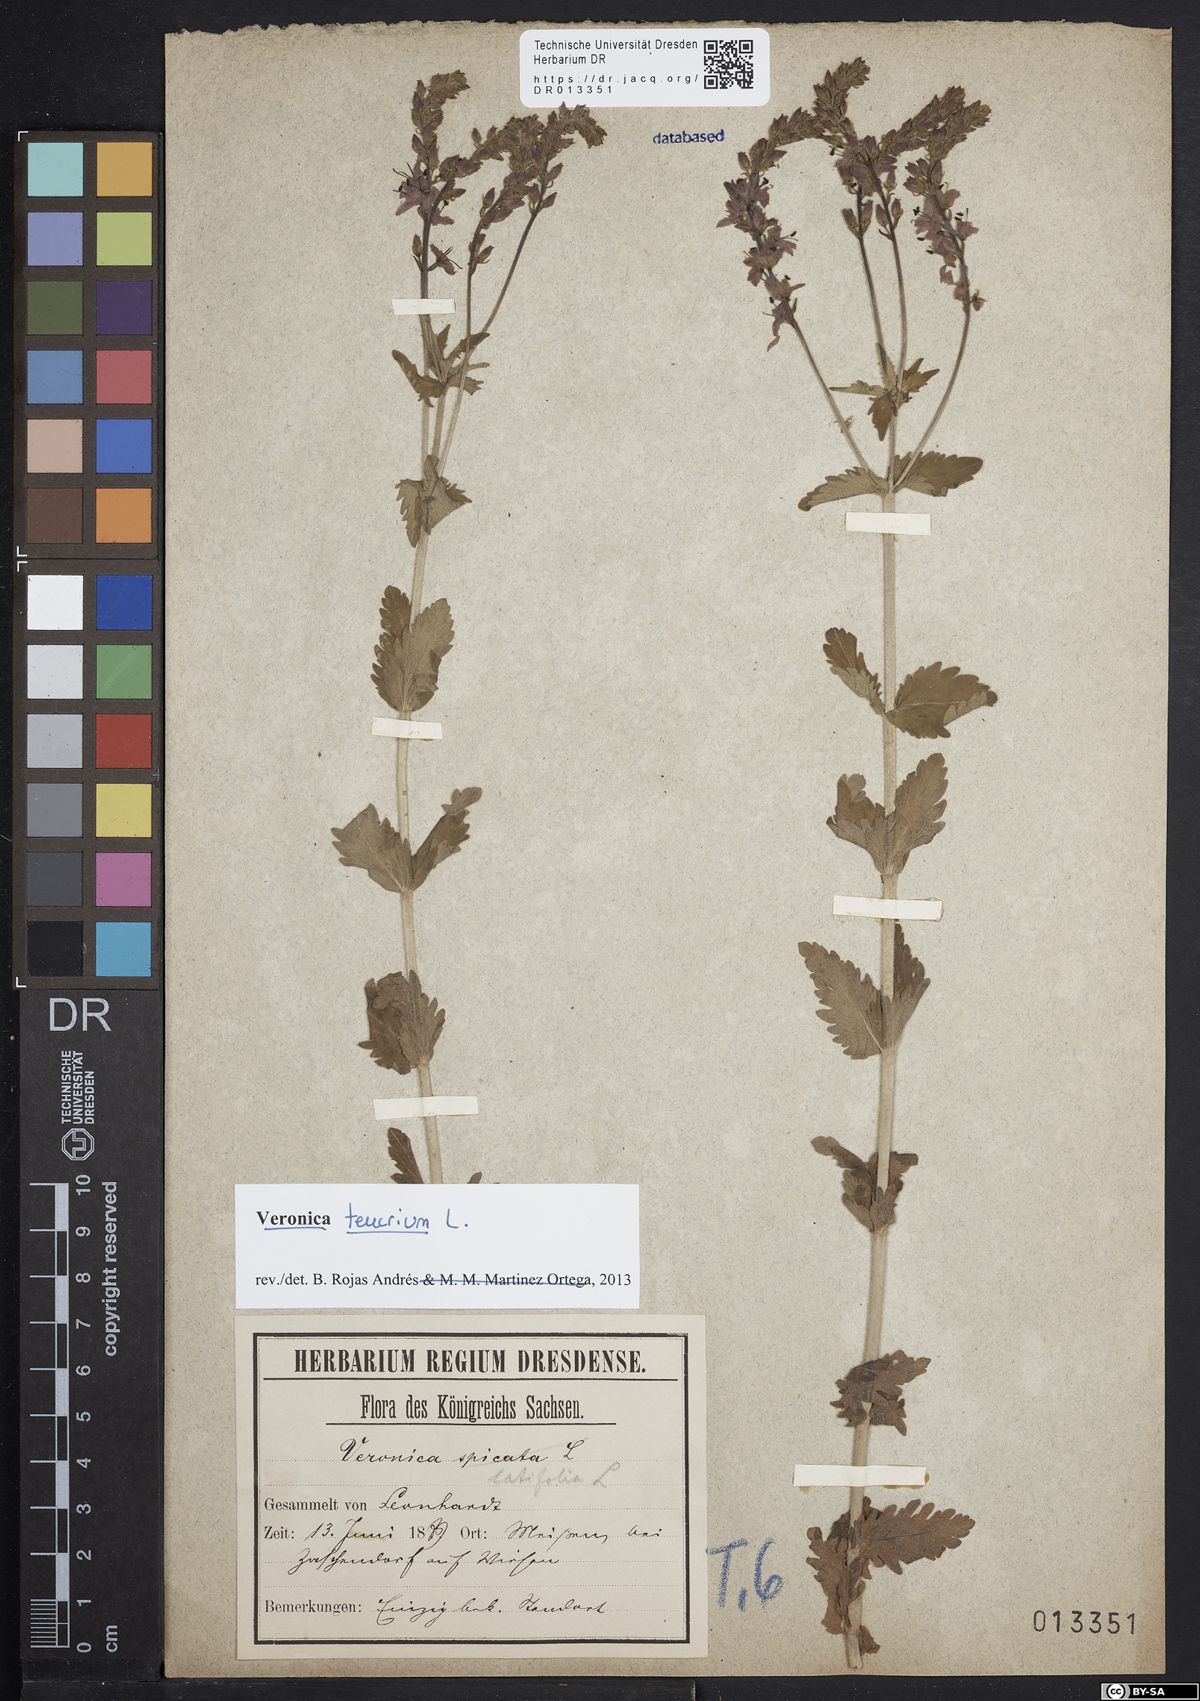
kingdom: Plantae
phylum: Tracheophyta
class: Magnoliopsida
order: Lamiales
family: Plantaginaceae
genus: Veronica
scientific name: Veronica teucrium
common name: Large speedwell
